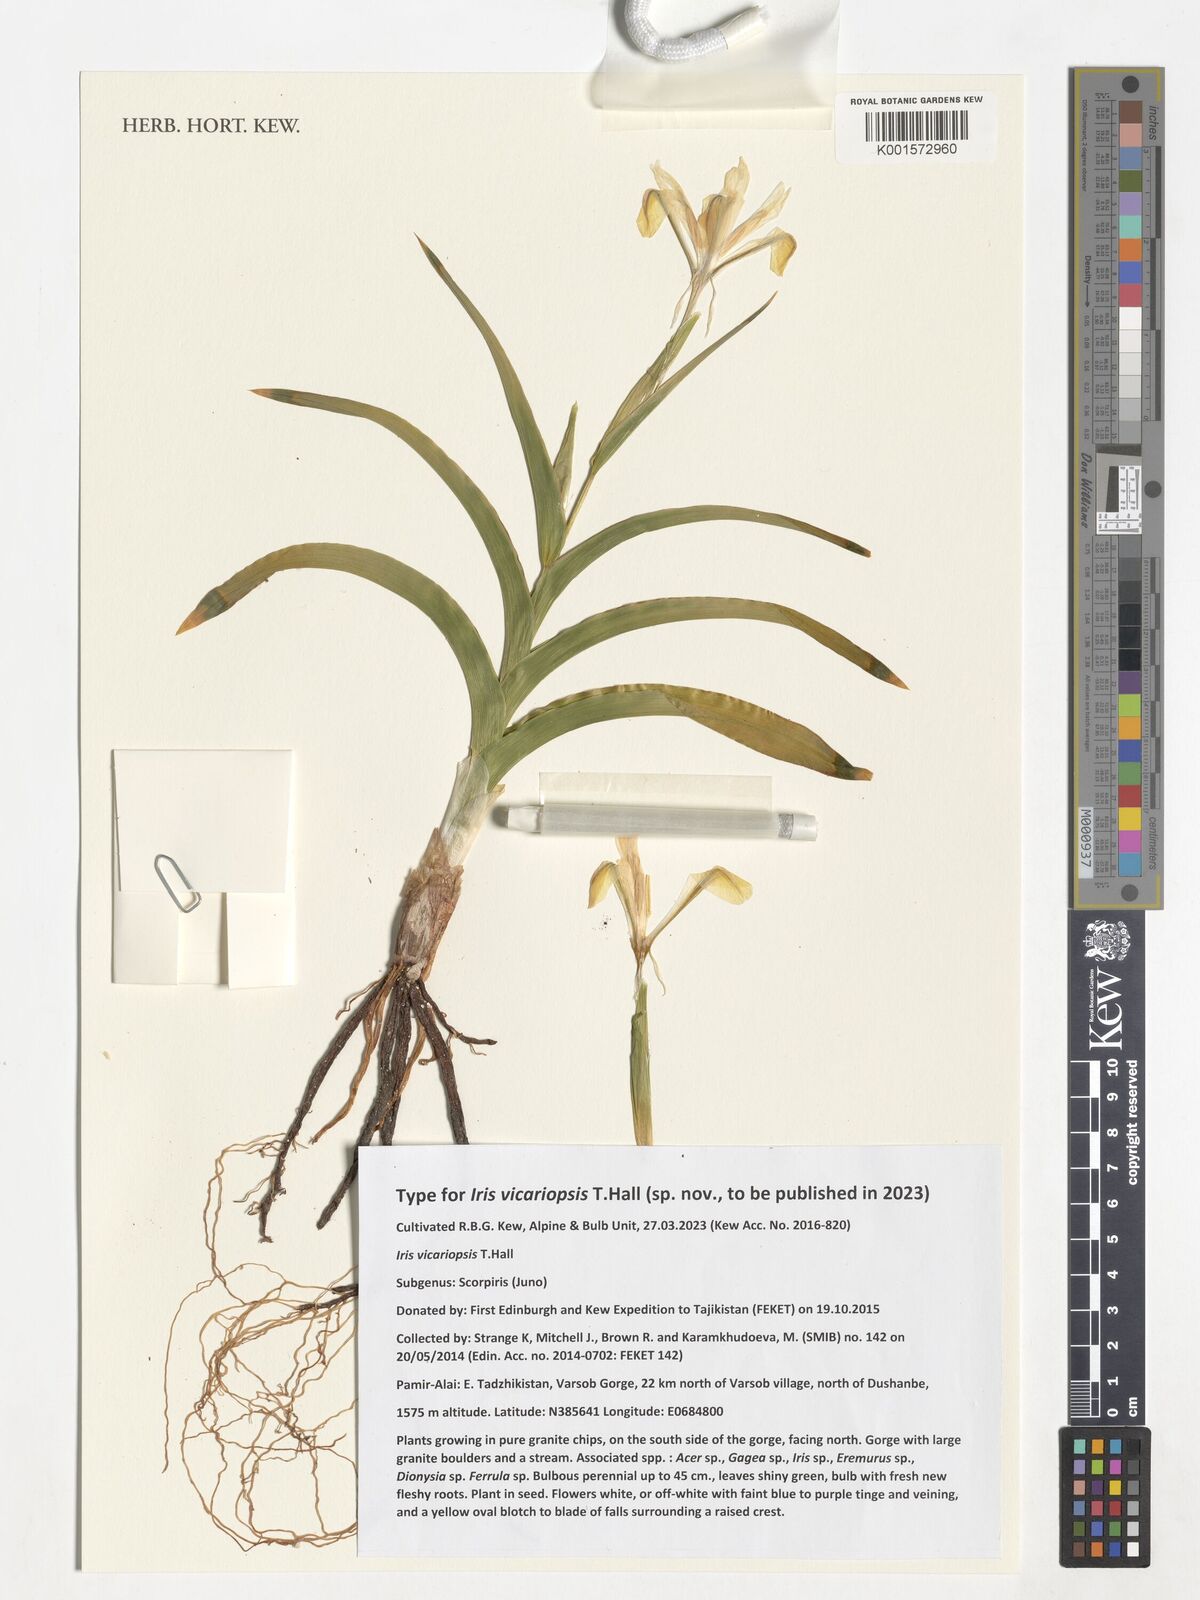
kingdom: Plantae
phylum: Tracheophyta
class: Liliopsida
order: Asparagales
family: Iridaceae
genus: Iris
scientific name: Iris
